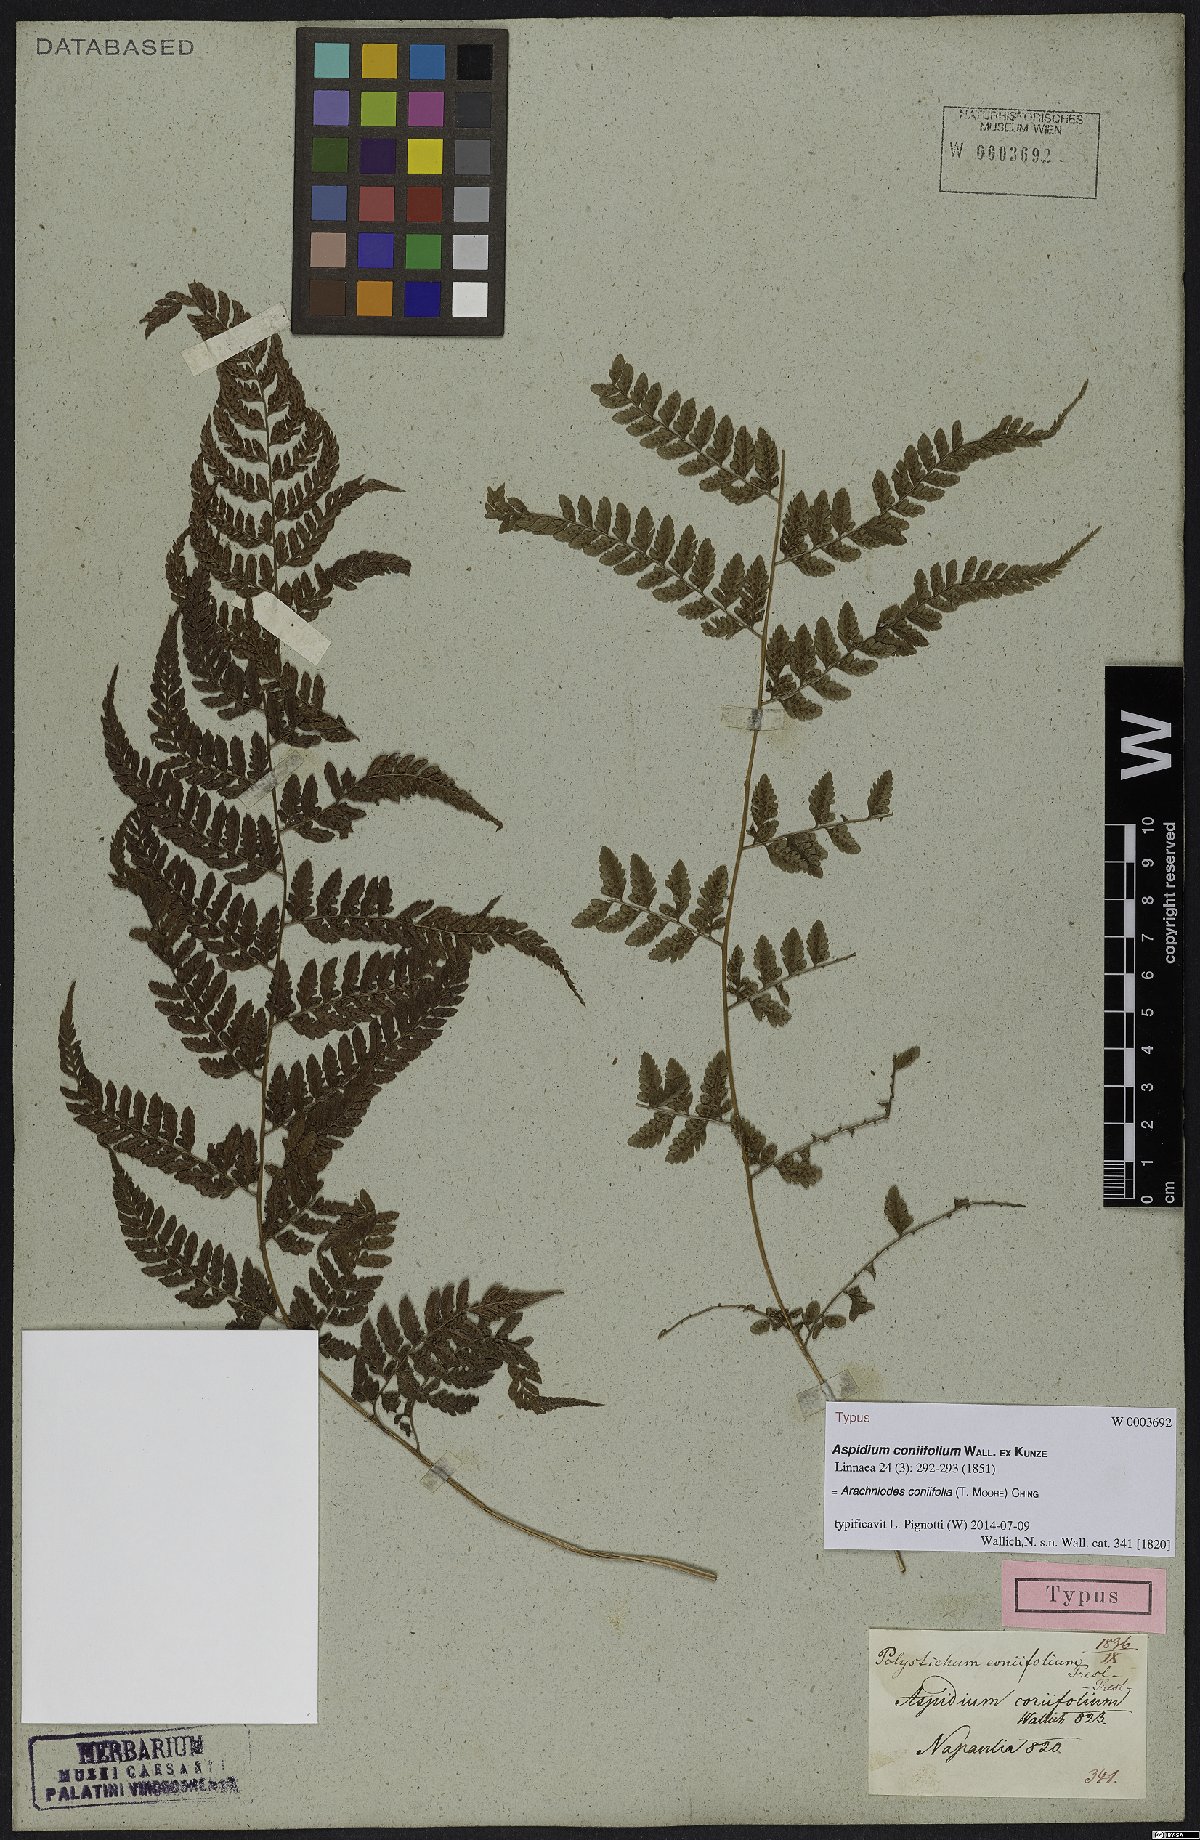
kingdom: Plantae
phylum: Tracheophyta
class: Polypodiopsida
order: Polypodiales
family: Dryopteridaceae
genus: Arachniodes
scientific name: Arachniodes coniifolia
